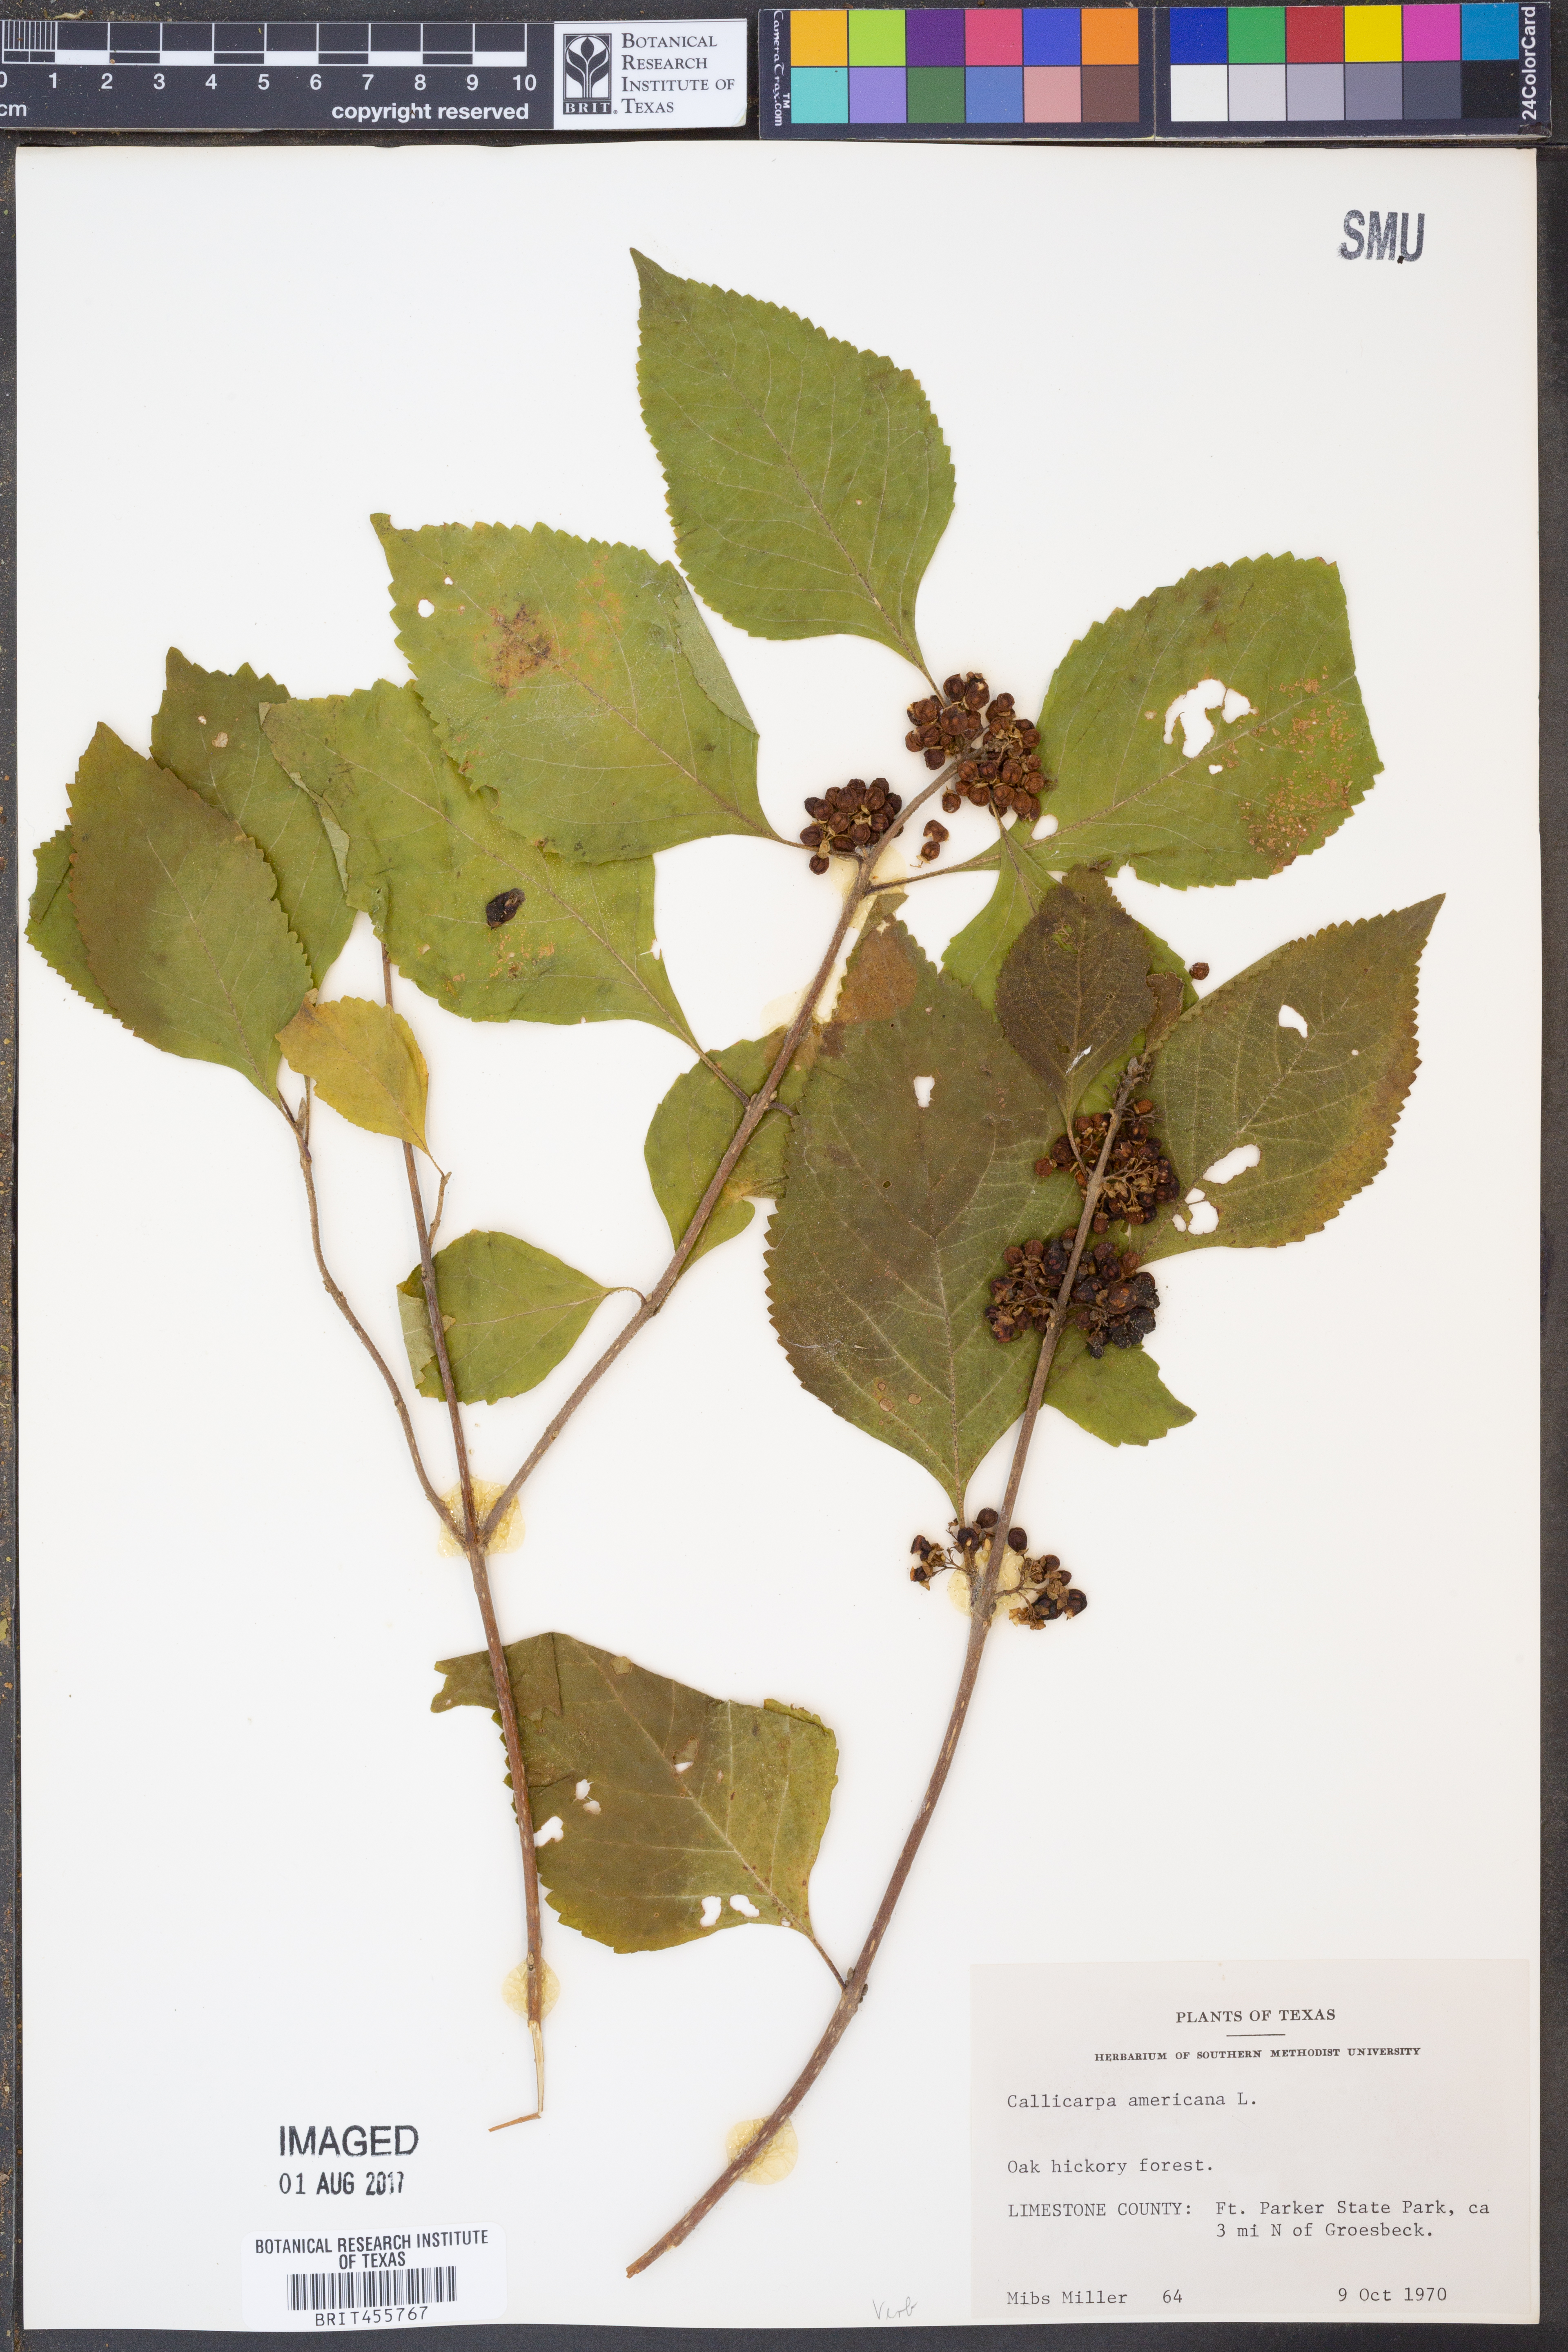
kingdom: Plantae
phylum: Tracheophyta
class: Magnoliopsida
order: Lamiales
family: Lamiaceae
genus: Callicarpa
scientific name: Callicarpa americana
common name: American beautyberry
